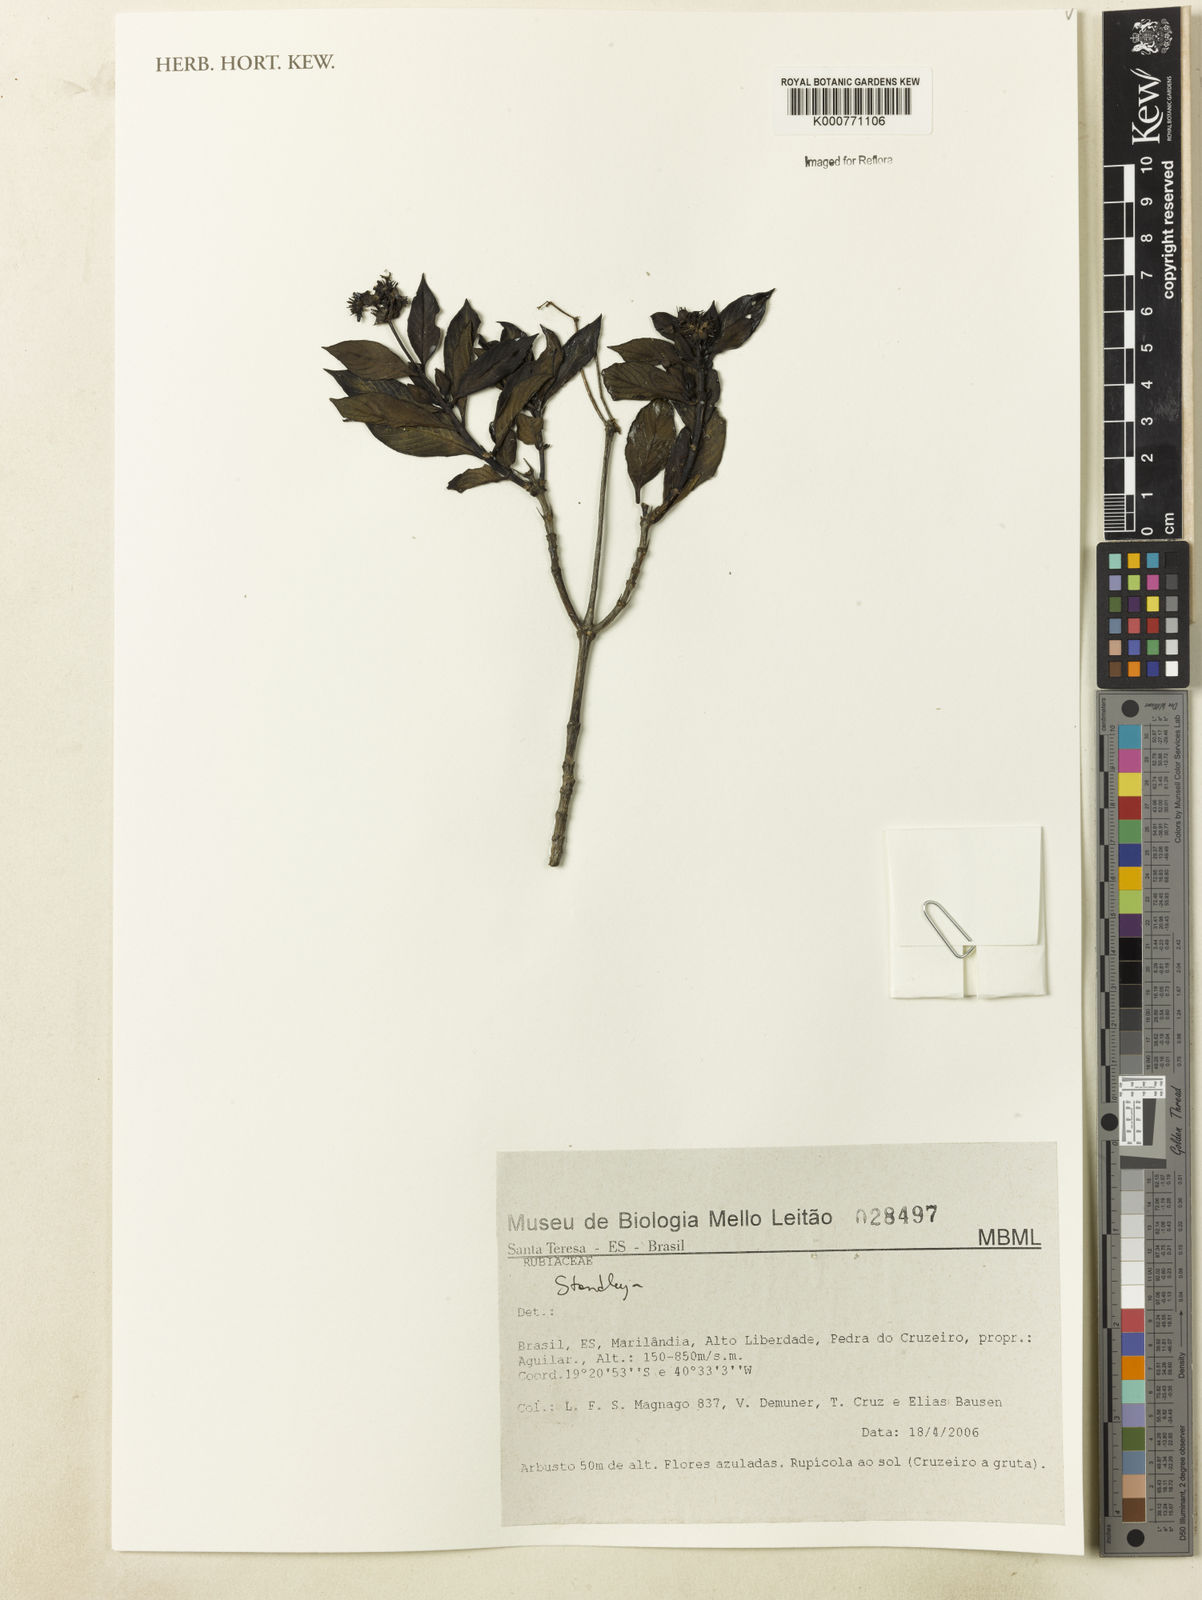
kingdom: Plantae
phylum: Tracheophyta
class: Magnoliopsida
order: Gentianales
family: Rubiaceae
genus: Standleya
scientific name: Standleya
